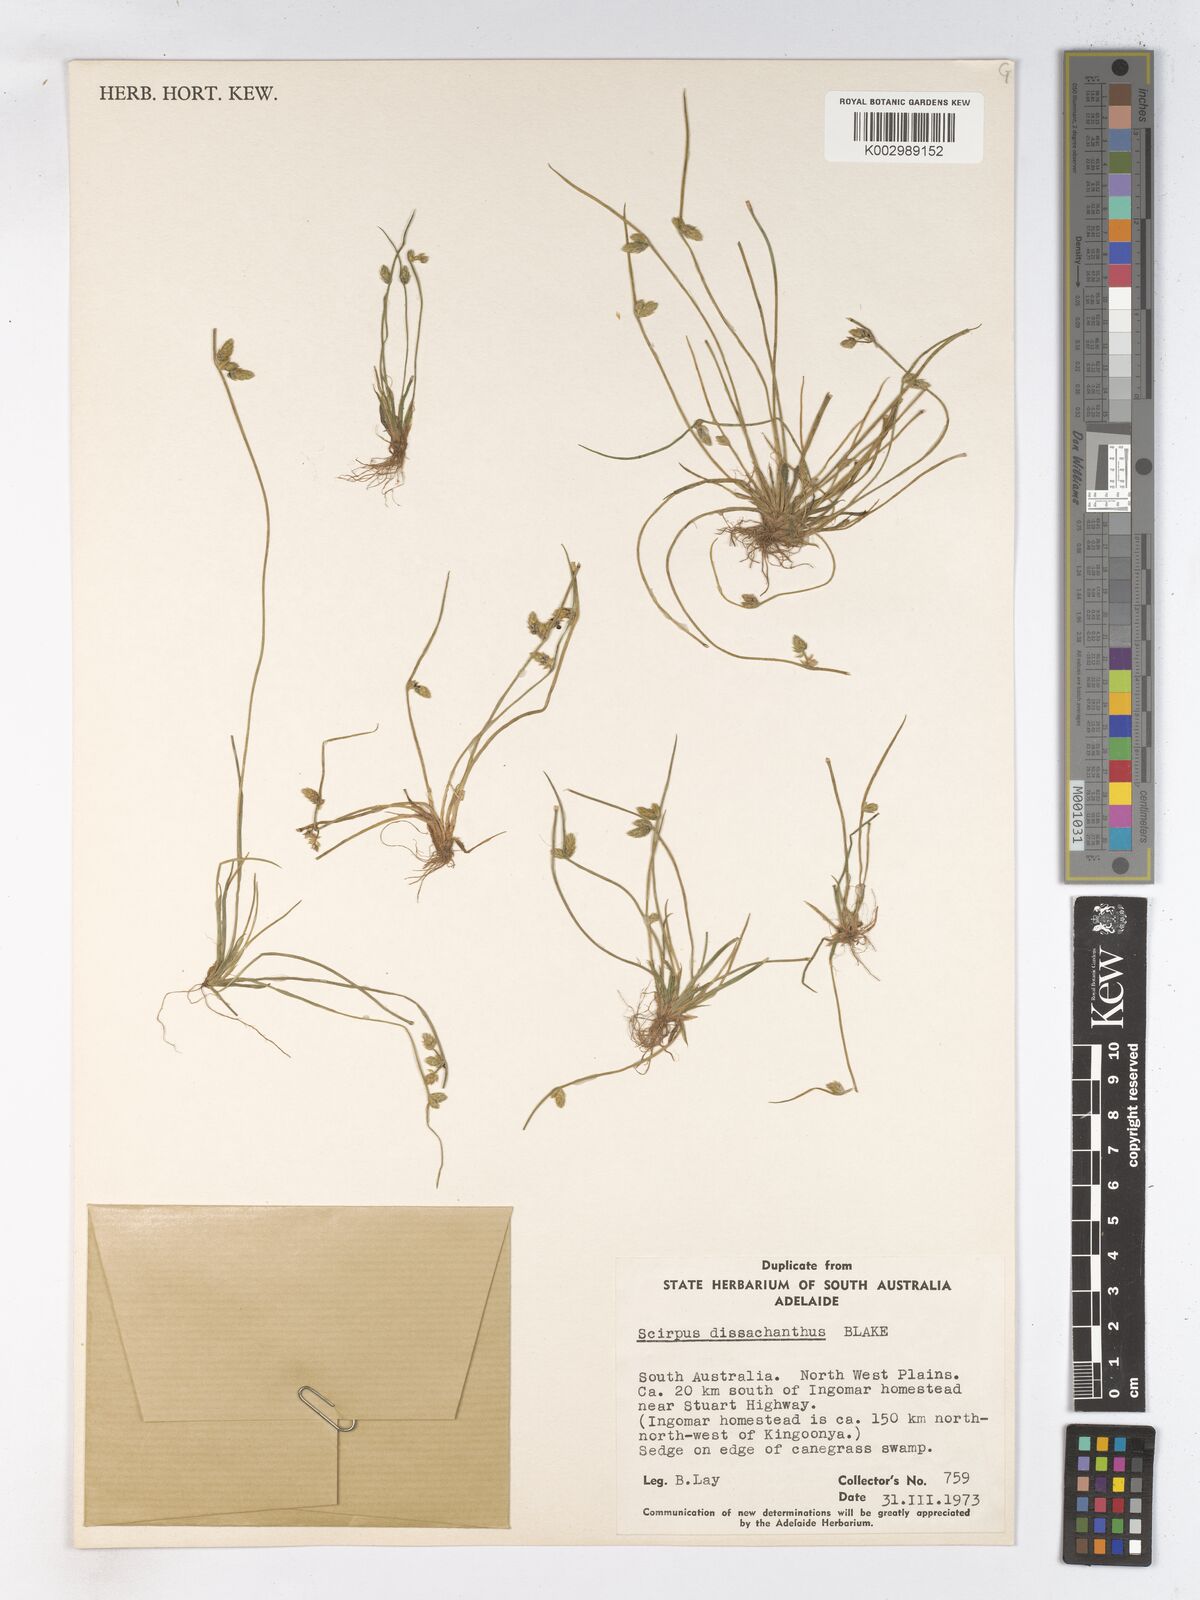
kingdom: Plantae
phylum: Tracheophyta
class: Liliopsida
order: Poales
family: Cyperaceae
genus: Schoenoplectiella
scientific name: Schoenoplectiella dissachantha
